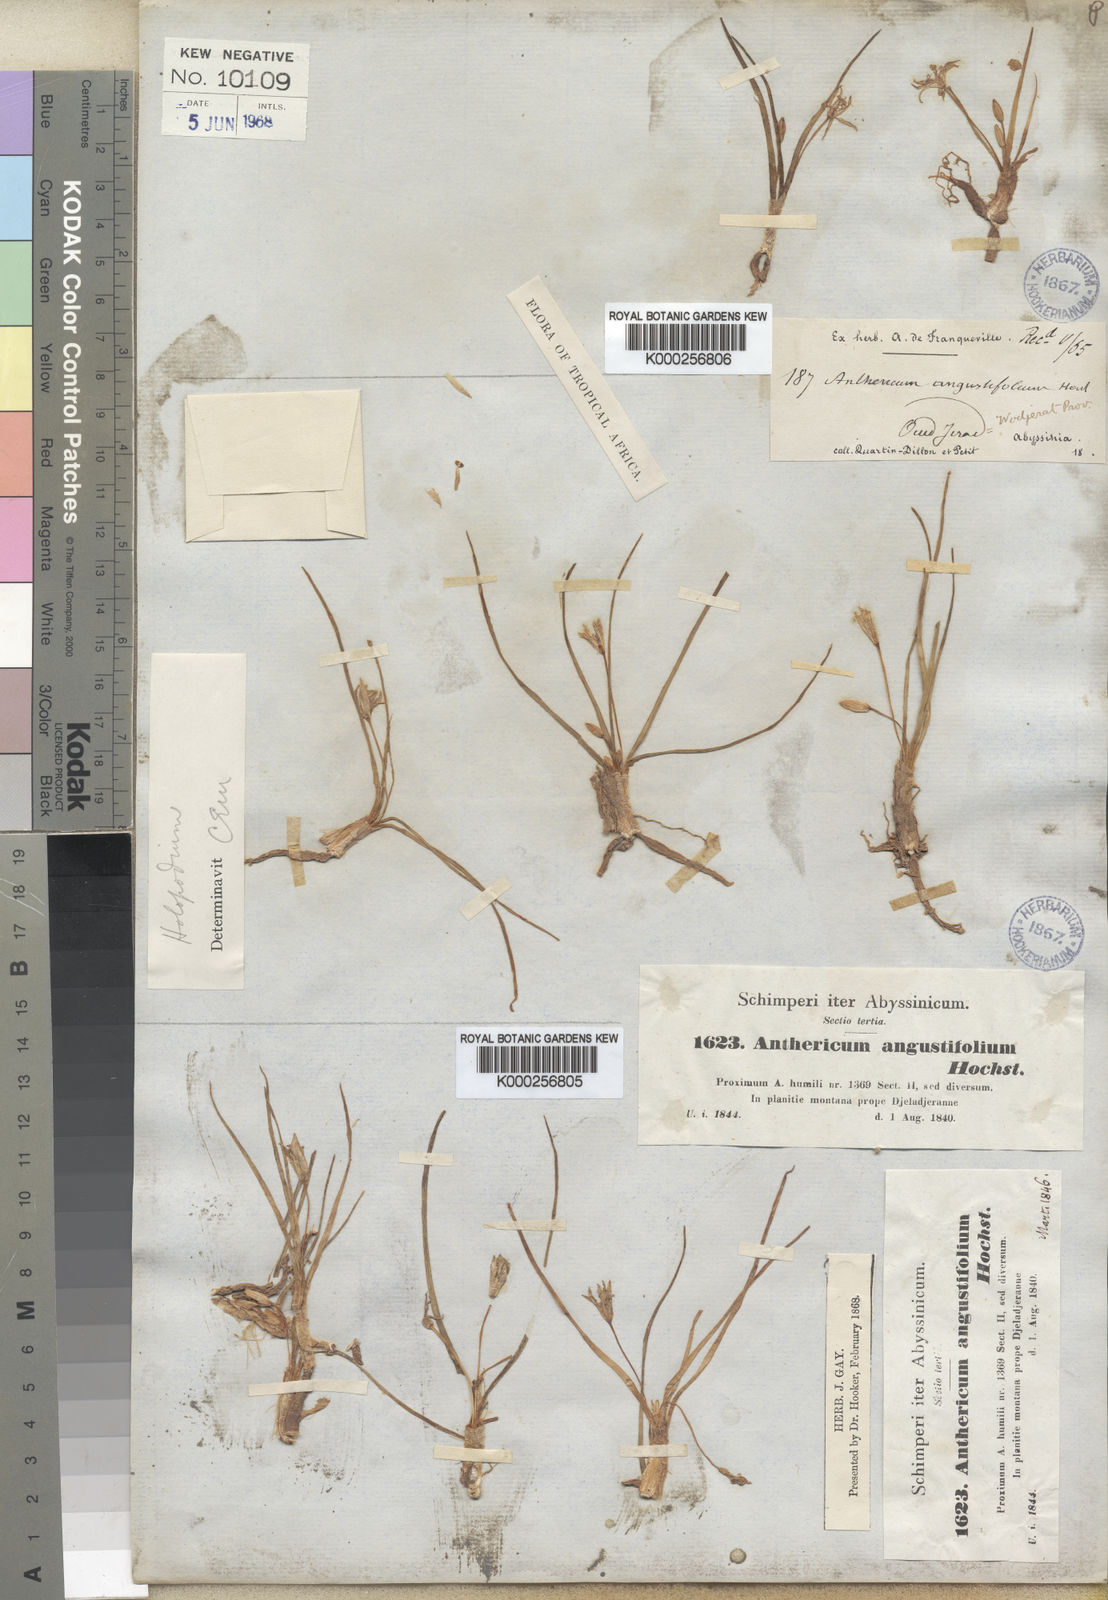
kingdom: Plantae
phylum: Tracheophyta
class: Liliopsida
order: Asparagales
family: Asparagaceae
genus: Anthericum
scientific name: Anthericum
